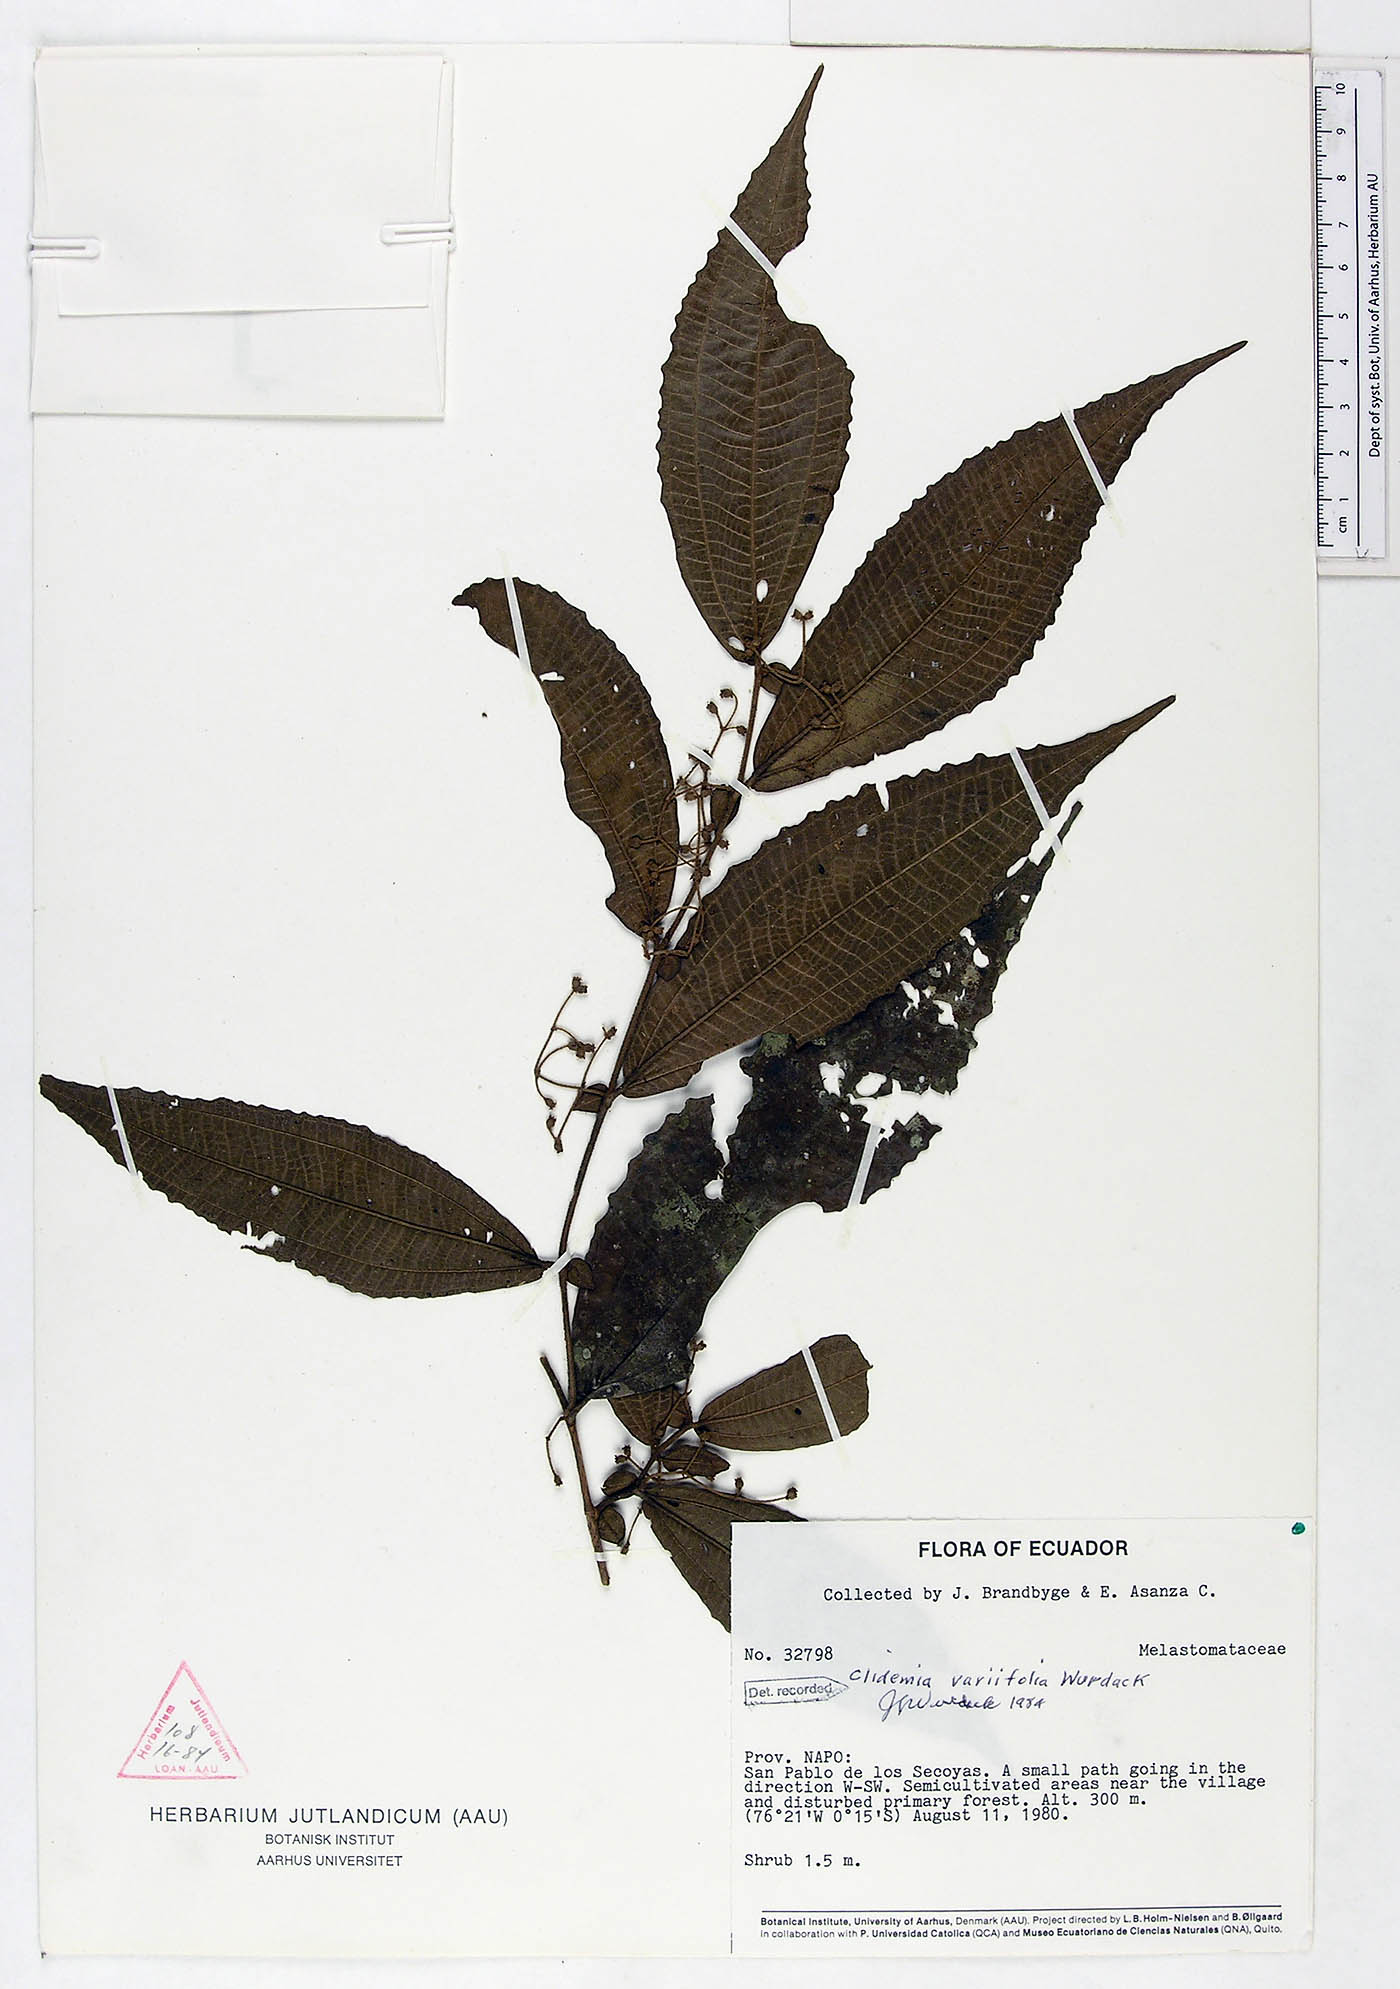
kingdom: Plantae
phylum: Tracheophyta
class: Magnoliopsida
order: Myrtales
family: Melastomataceae
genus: Miconia
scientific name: Miconia variifolia
